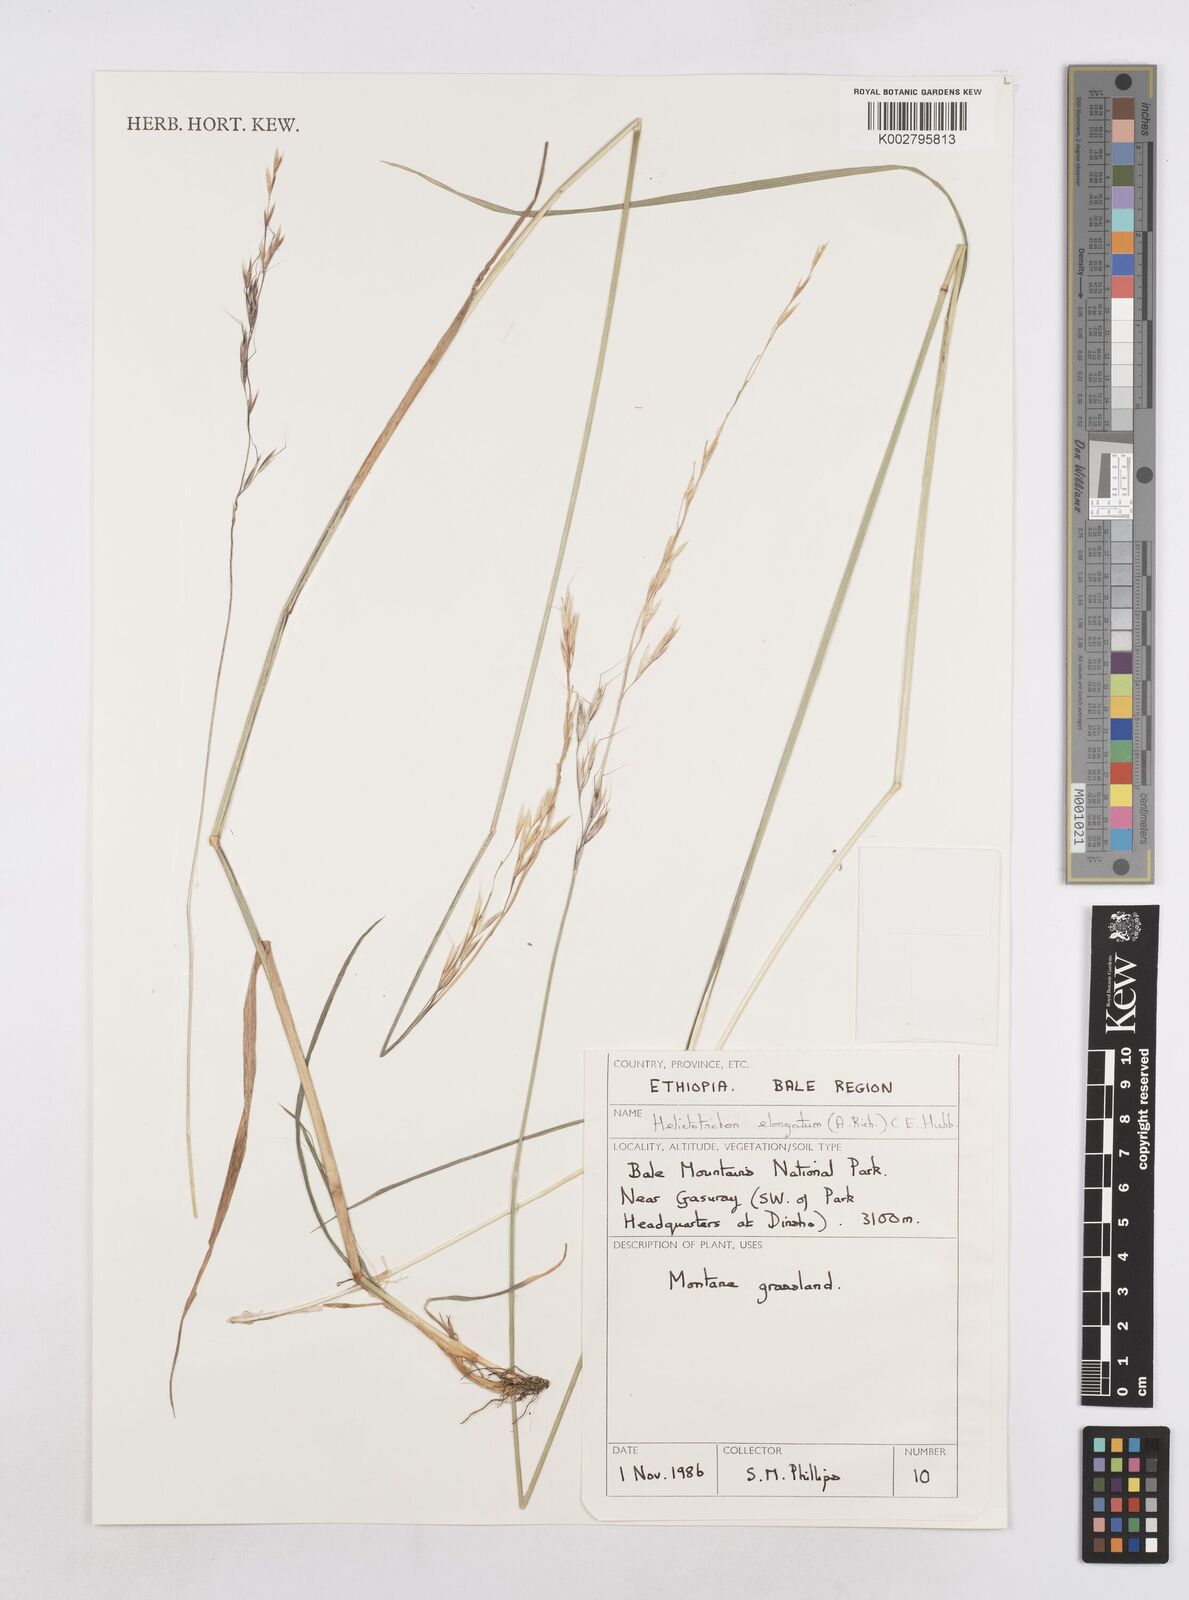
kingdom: Plantae
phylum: Tracheophyta
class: Liliopsida
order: Poales
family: Poaceae
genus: Trisetopsis
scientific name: Trisetopsis elongata
